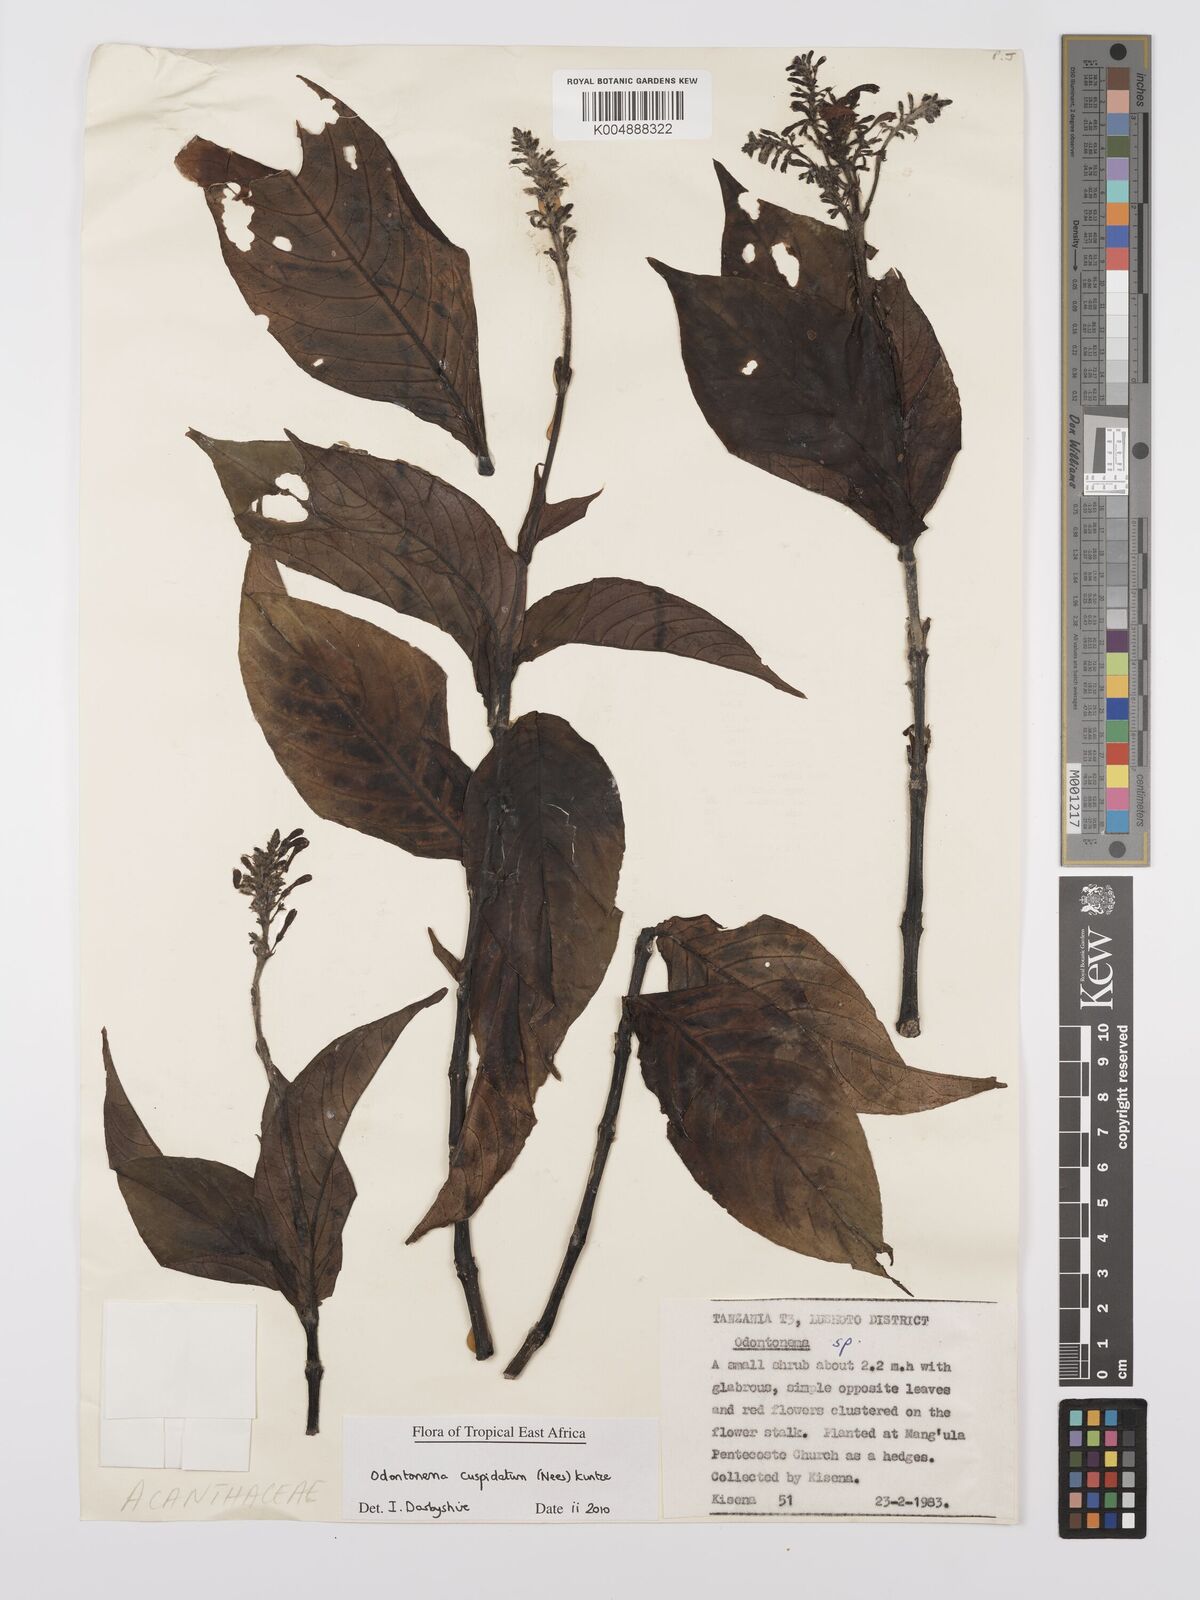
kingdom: Plantae
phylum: Tracheophyta
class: Magnoliopsida
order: Lamiales
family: Acanthaceae
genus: Odontonema
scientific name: Odontonema cuspidatum
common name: Mottled toothedthread
